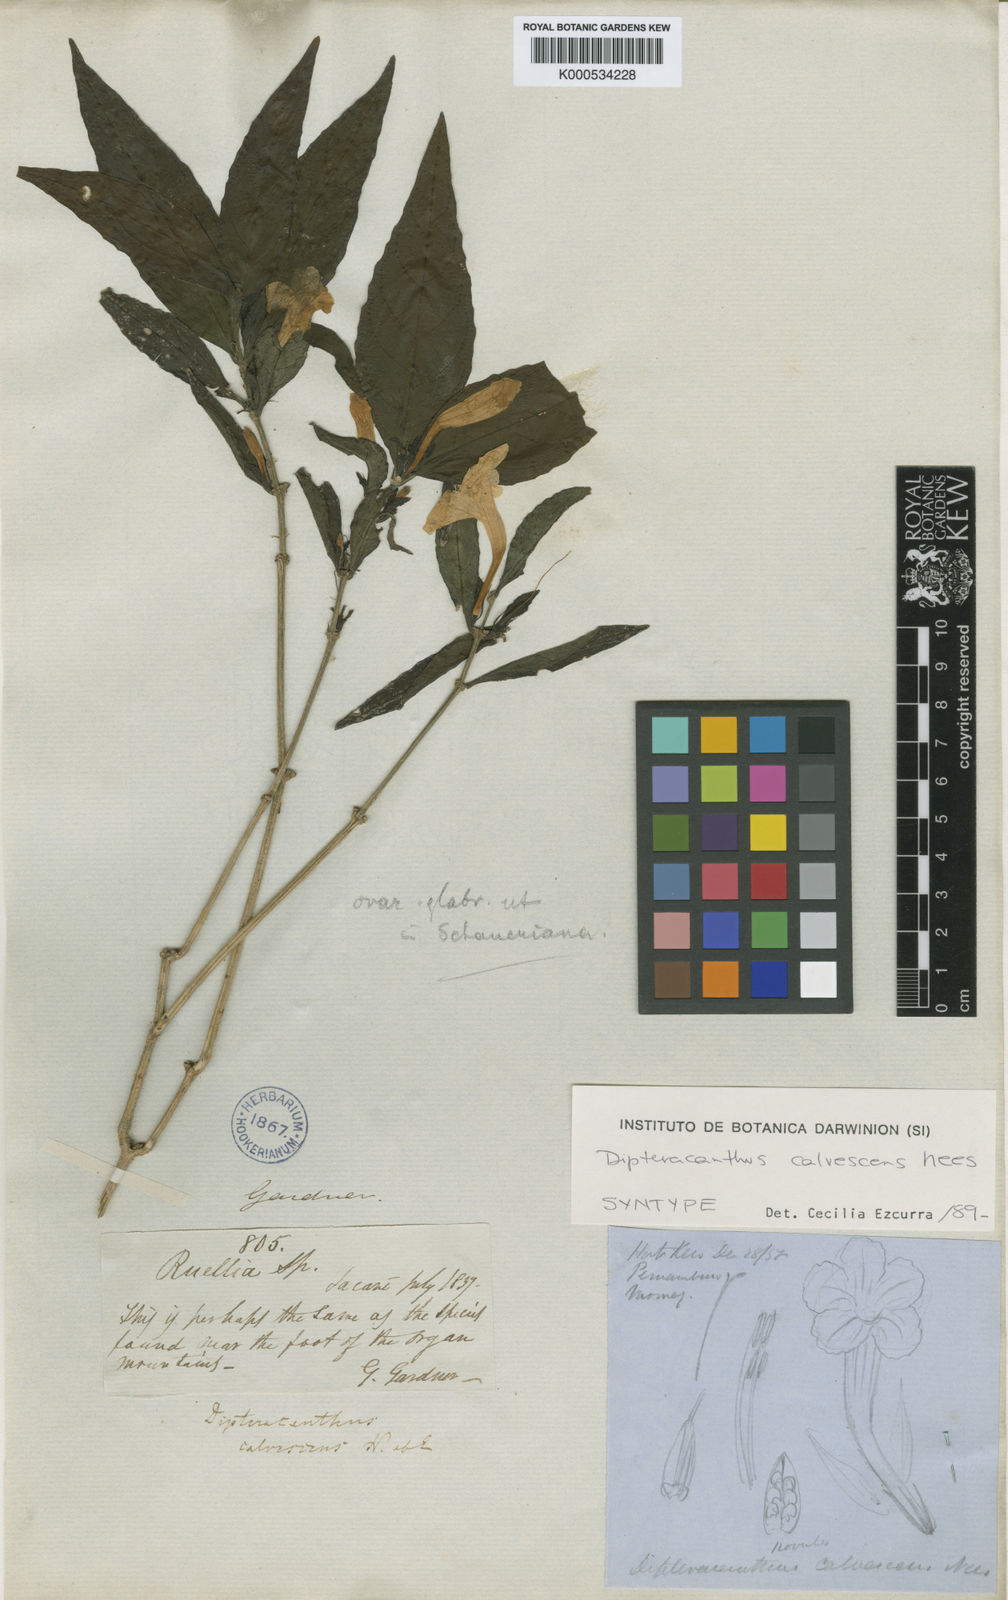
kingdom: Plantae
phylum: Tracheophyta
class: Magnoliopsida
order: Lamiales
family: Acanthaceae
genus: Ruellia
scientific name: Ruellia solitaria
